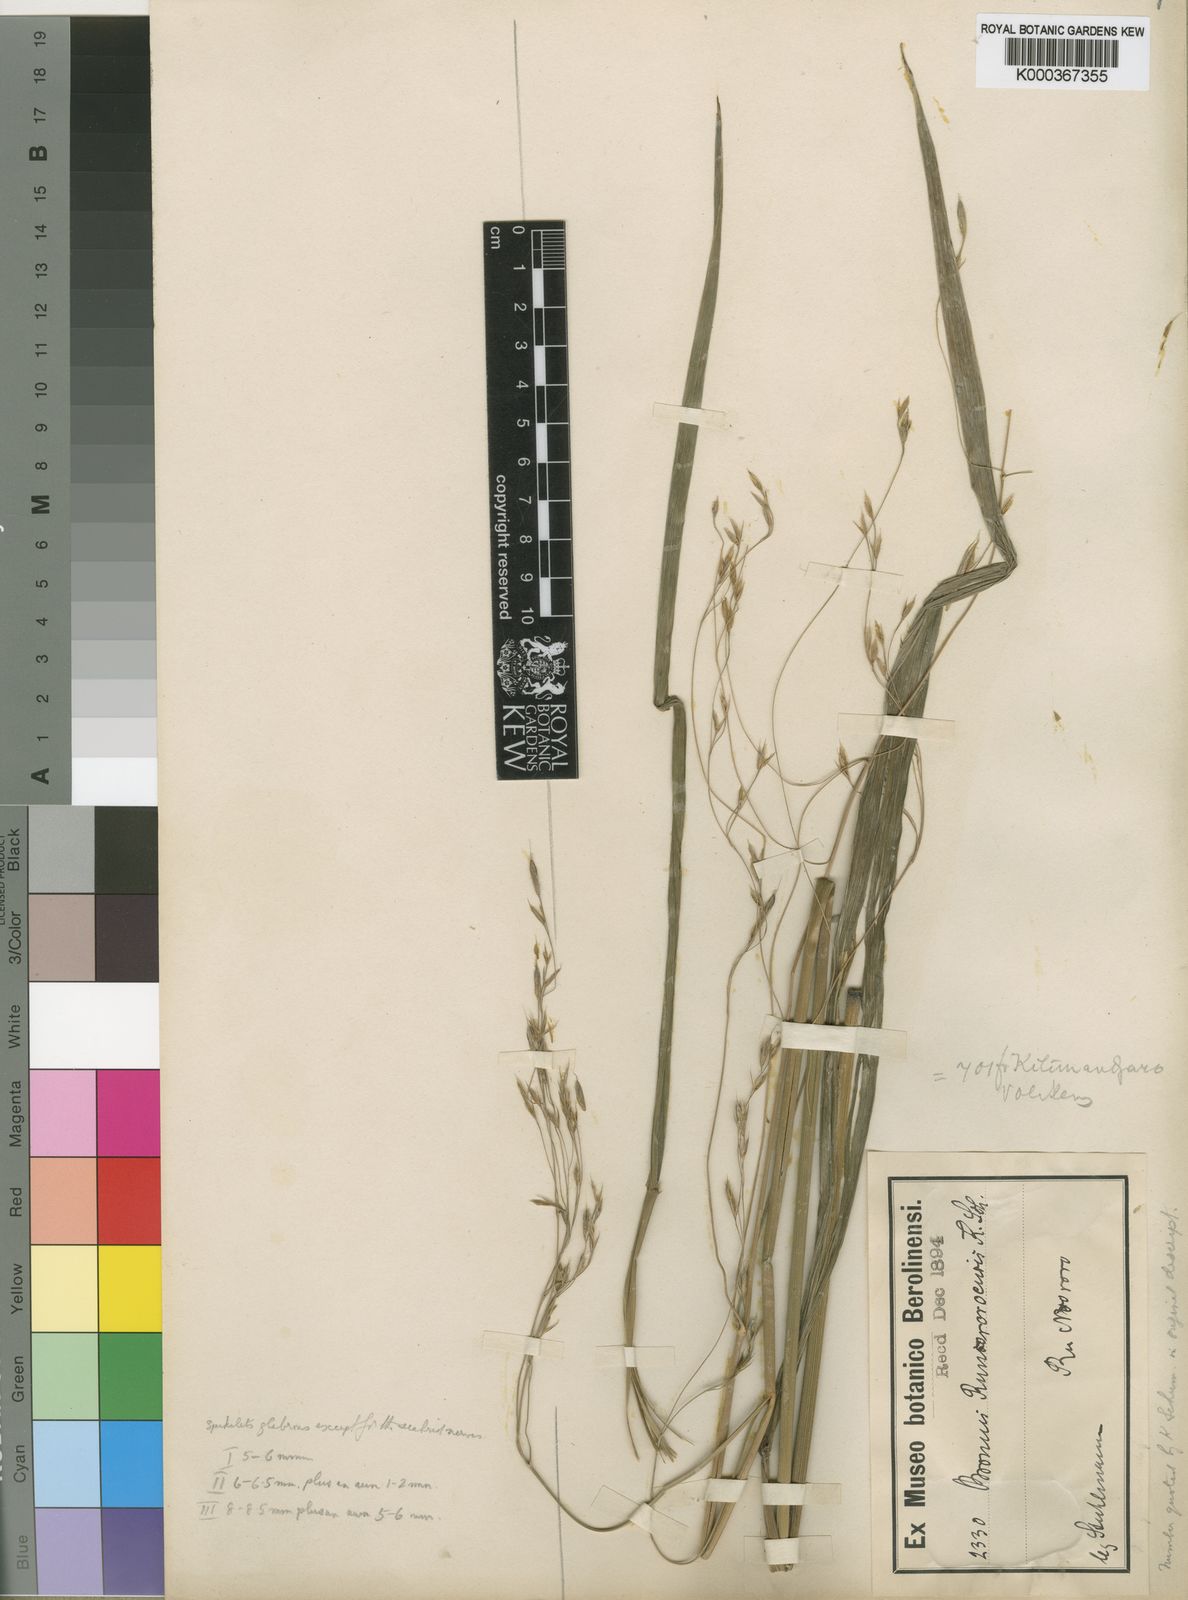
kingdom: Plantae
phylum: Tracheophyta
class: Liliopsida
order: Poales
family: Poaceae
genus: Bromus
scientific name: Bromus leptoclados
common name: Mountain bromegrass
